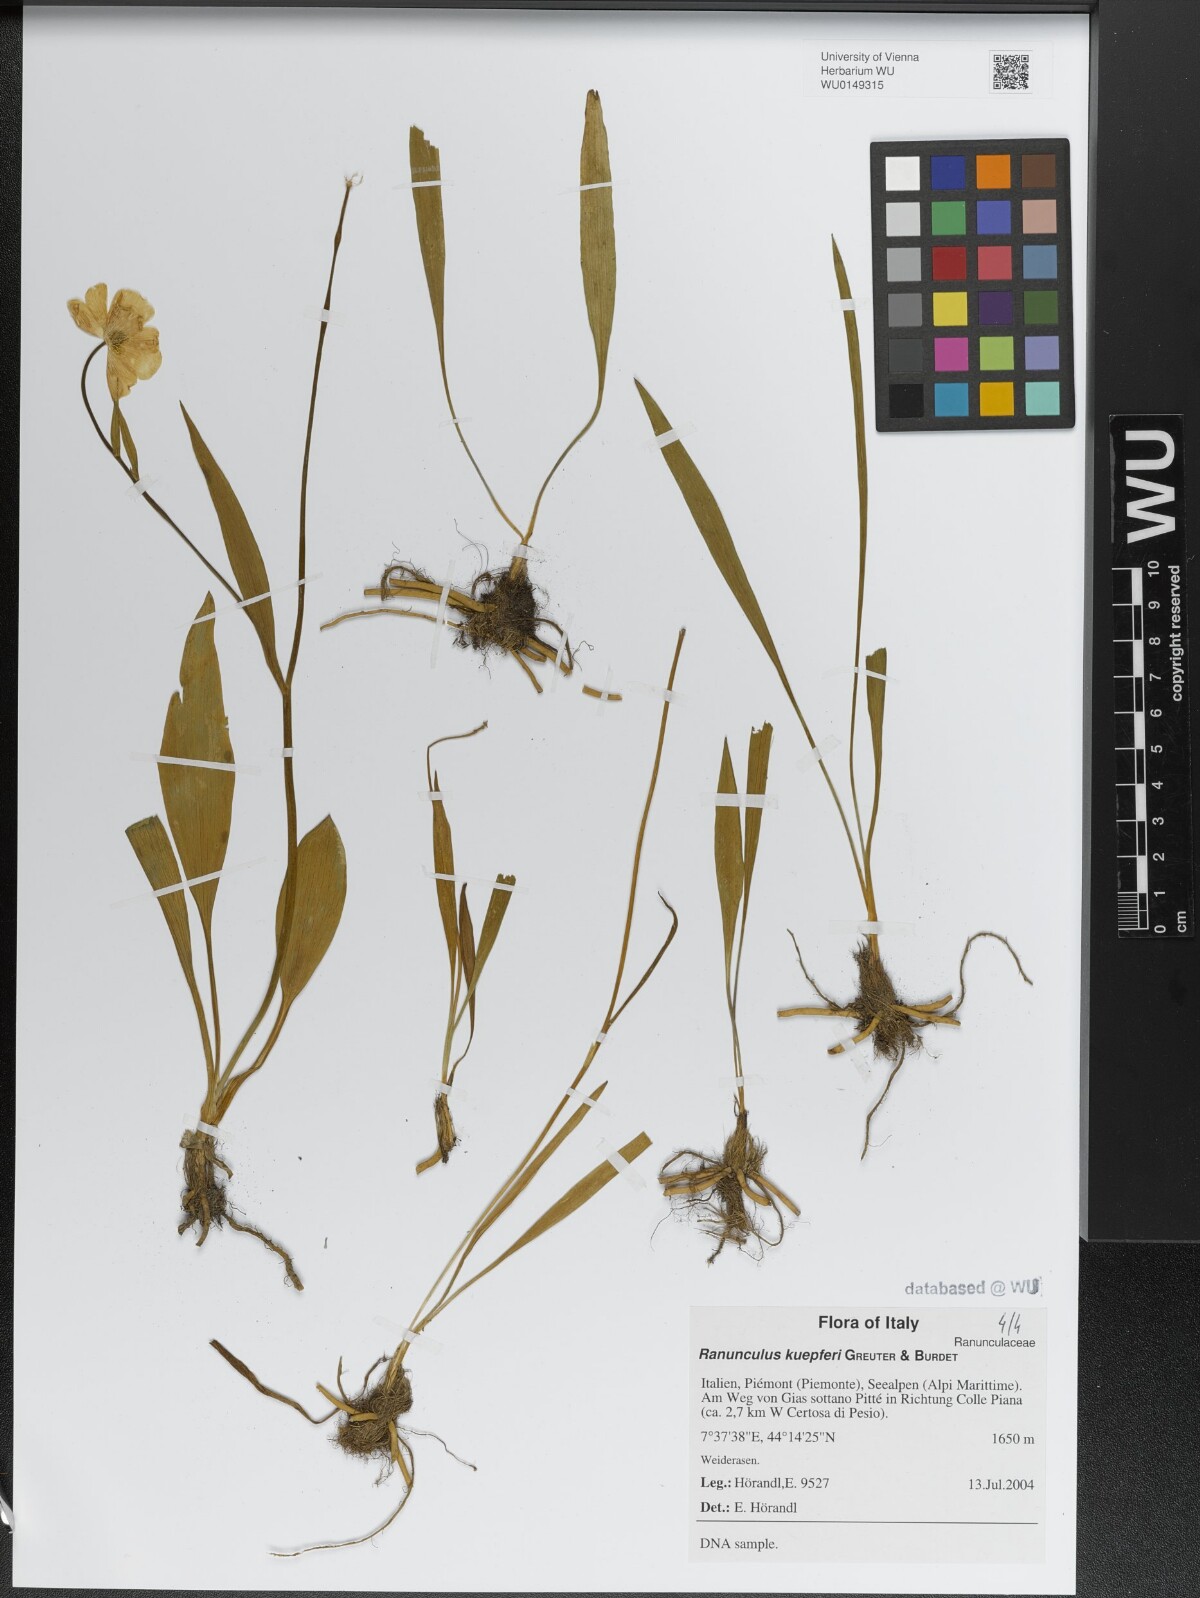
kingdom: Plantae
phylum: Tracheophyta
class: Magnoliopsida
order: Ranunculales
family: Ranunculaceae
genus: Ranunculus
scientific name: Ranunculus kuepferi
